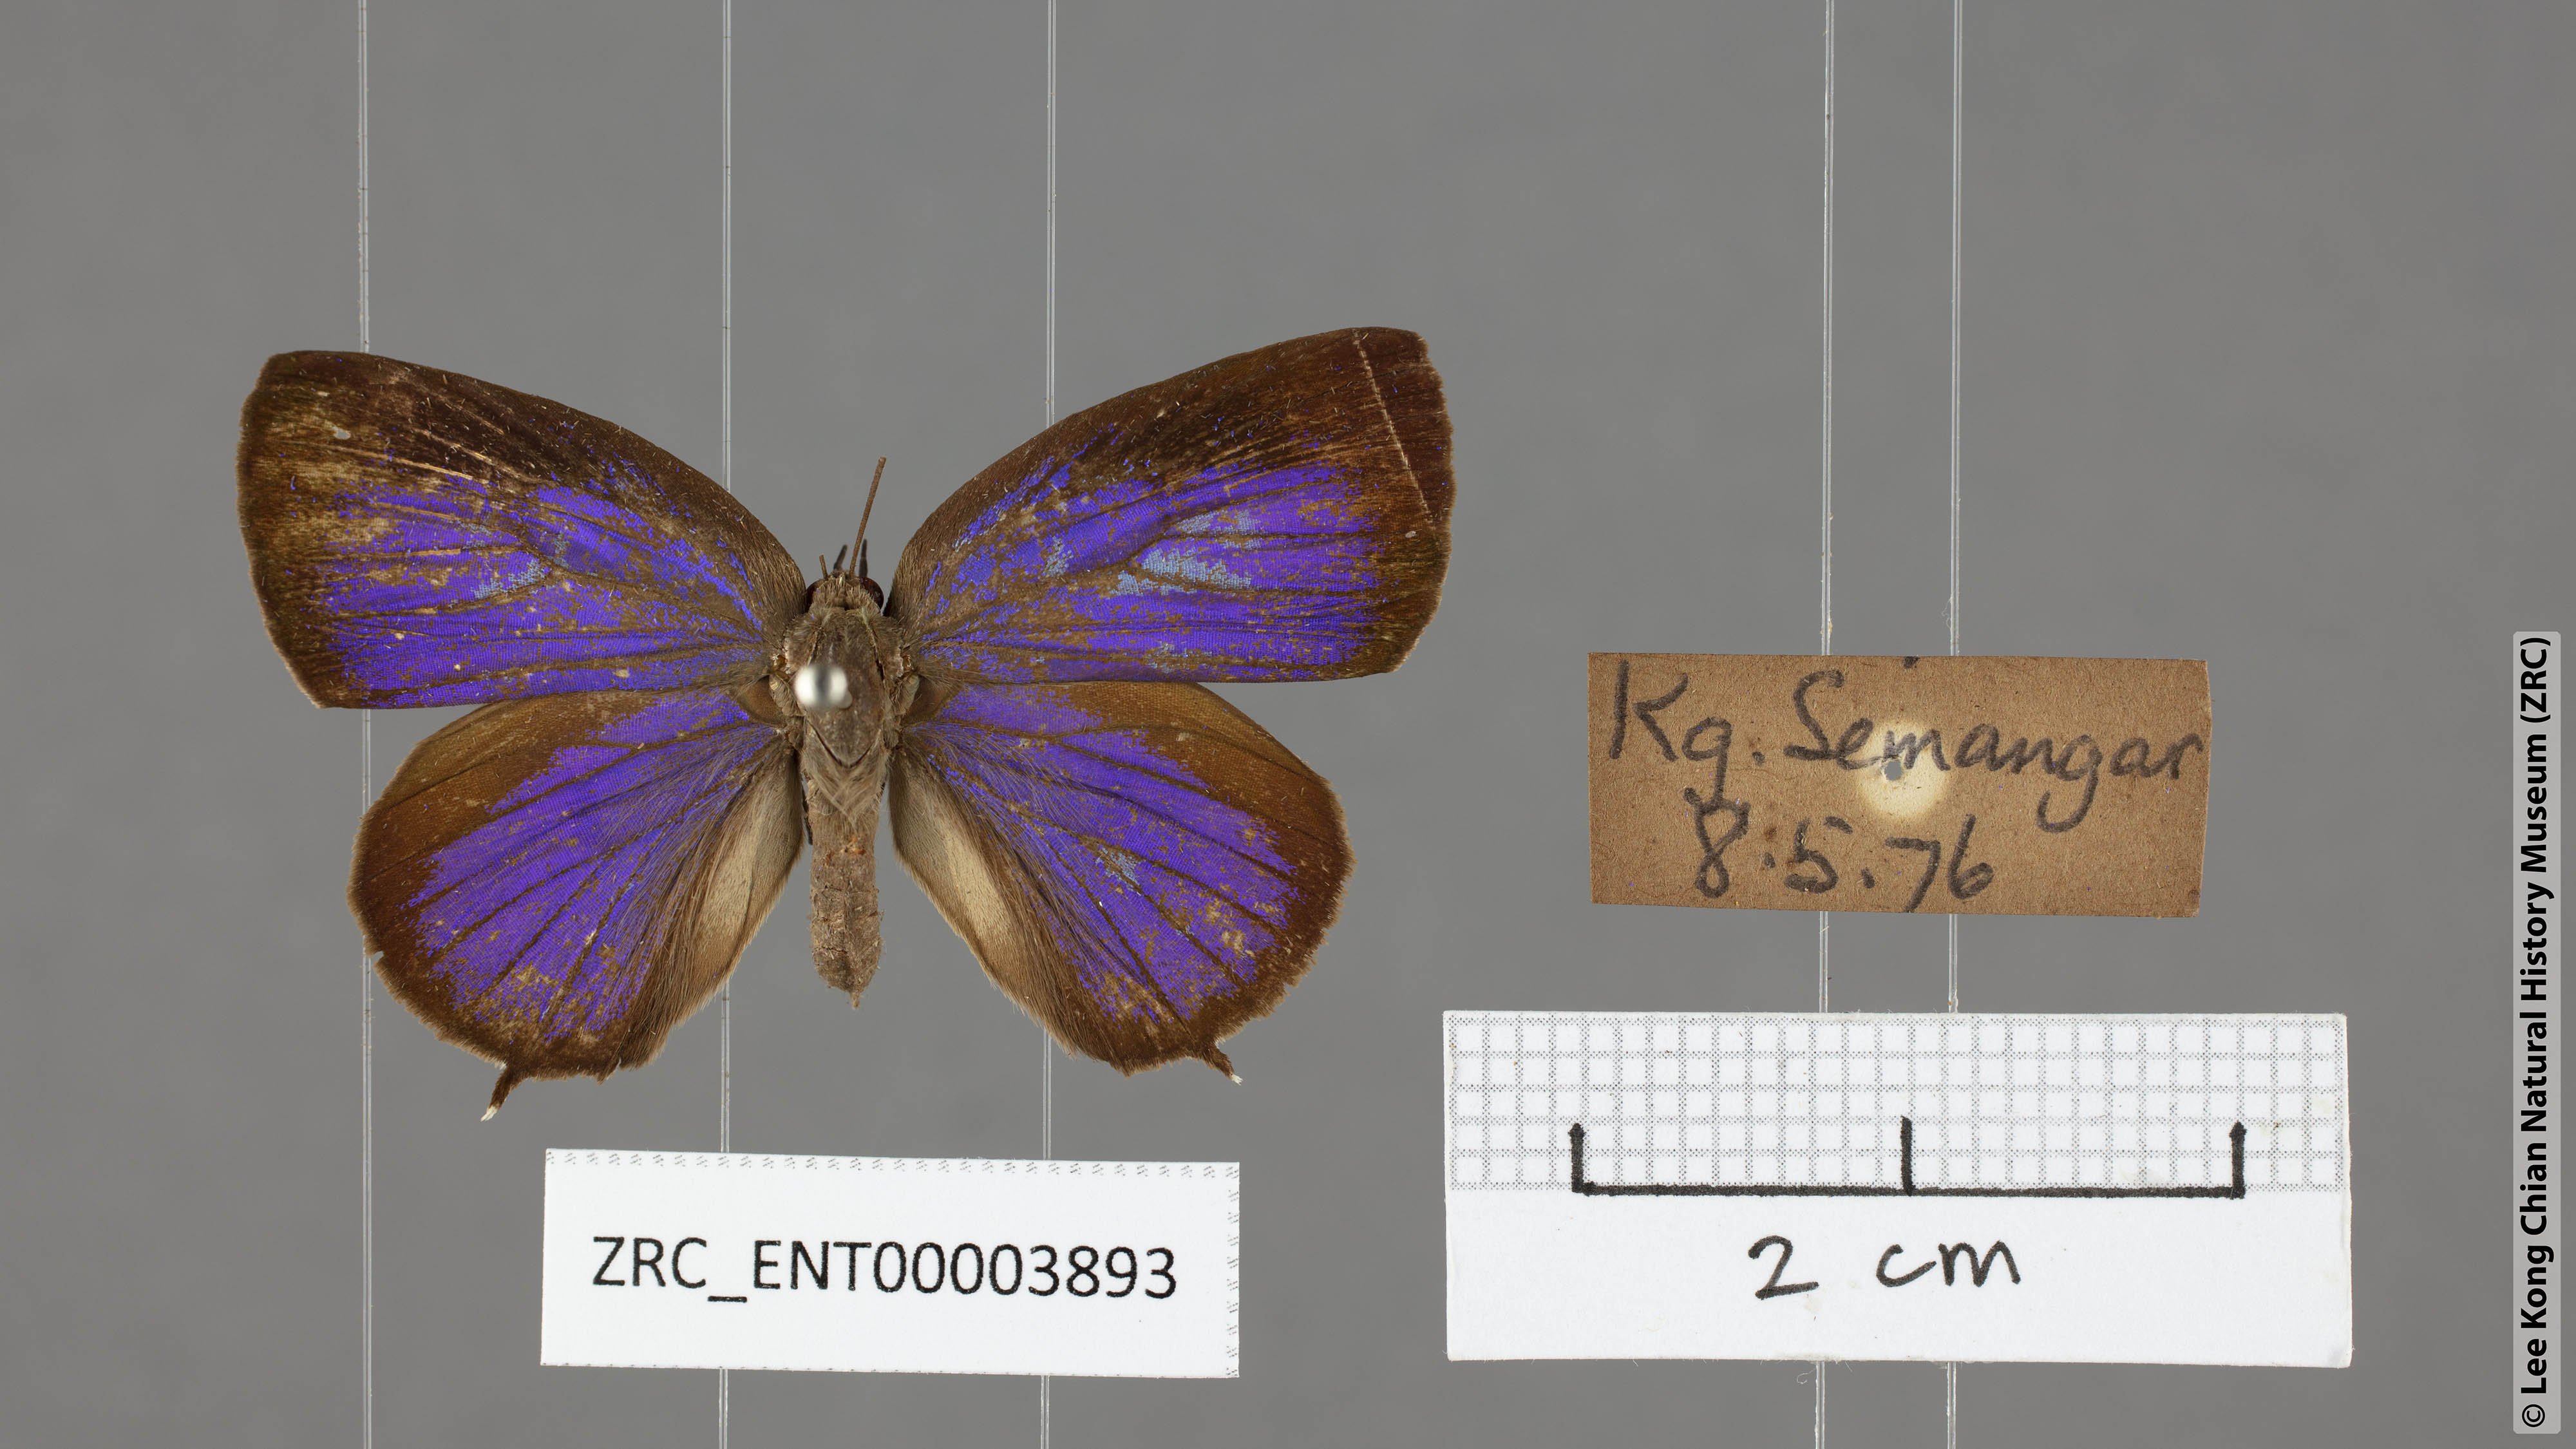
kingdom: Animalia
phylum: Arthropoda
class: Insecta
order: Lepidoptera
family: Lycaenidae
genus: Arhopala
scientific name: Arhopala buddha
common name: Buddha oakblue
